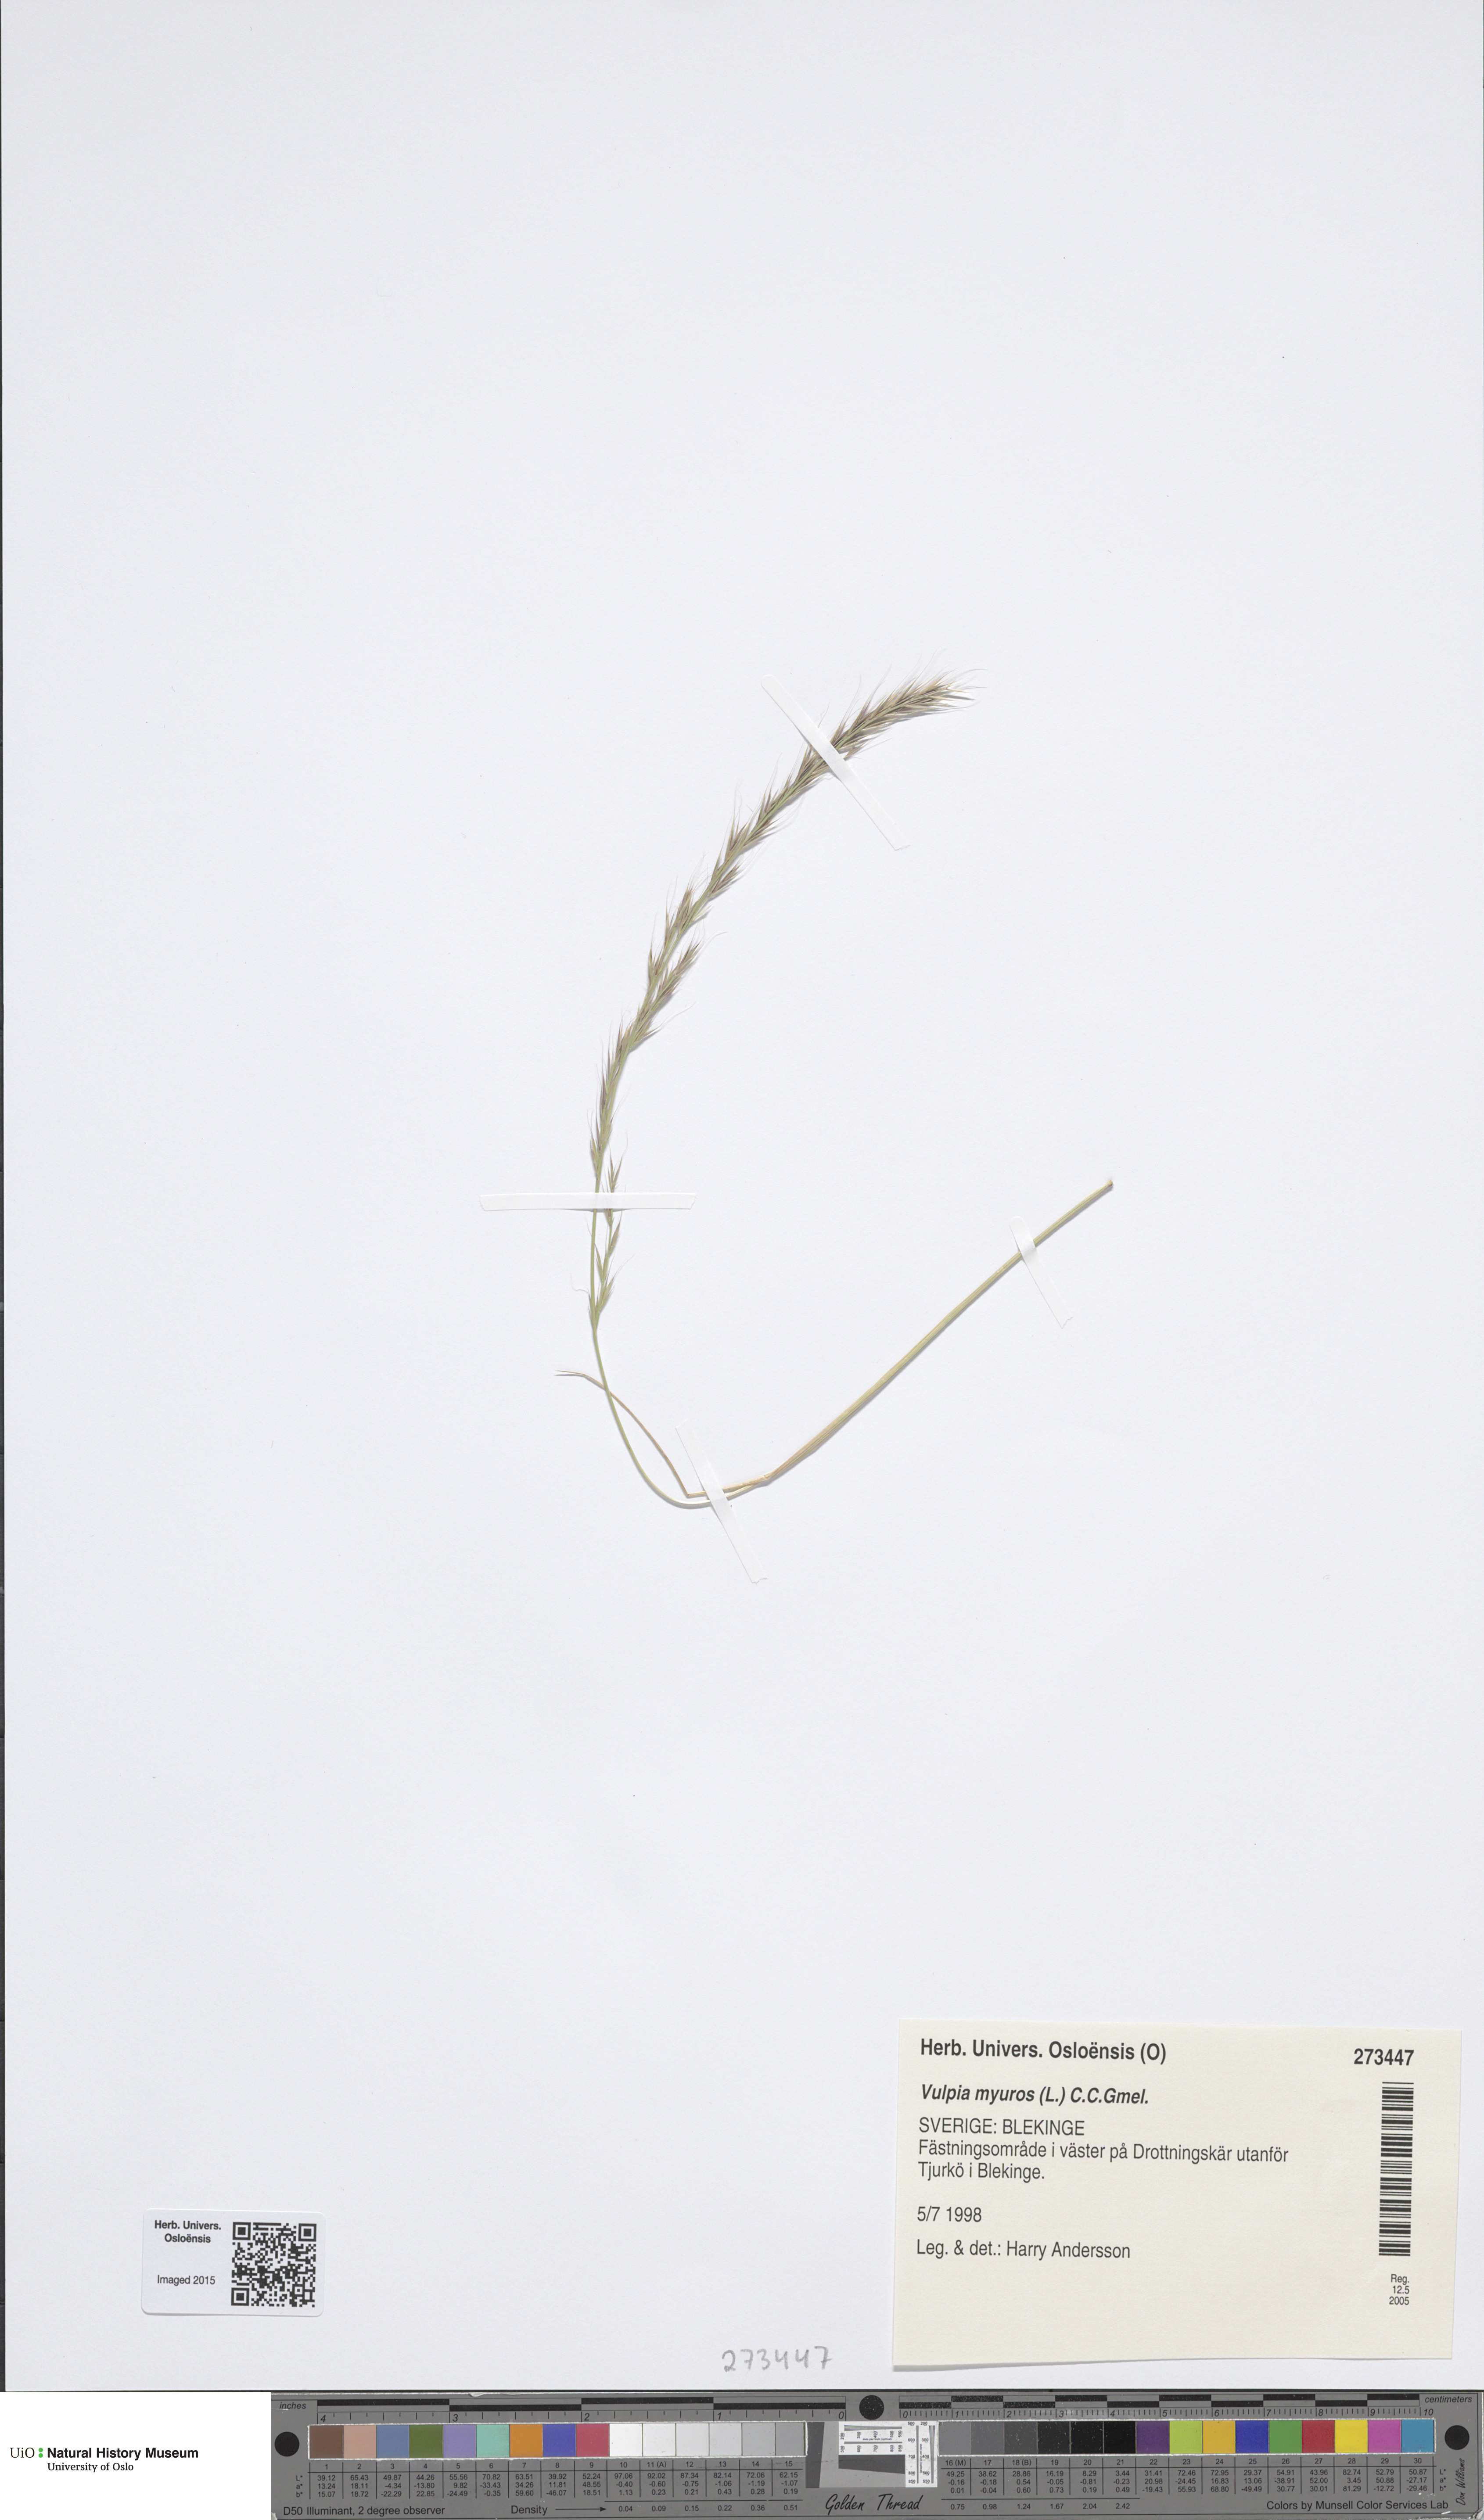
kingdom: Plantae
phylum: Tracheophyta
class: Liliopsida
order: Poales
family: Poaceae
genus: Festuca
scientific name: Festuca myuros
